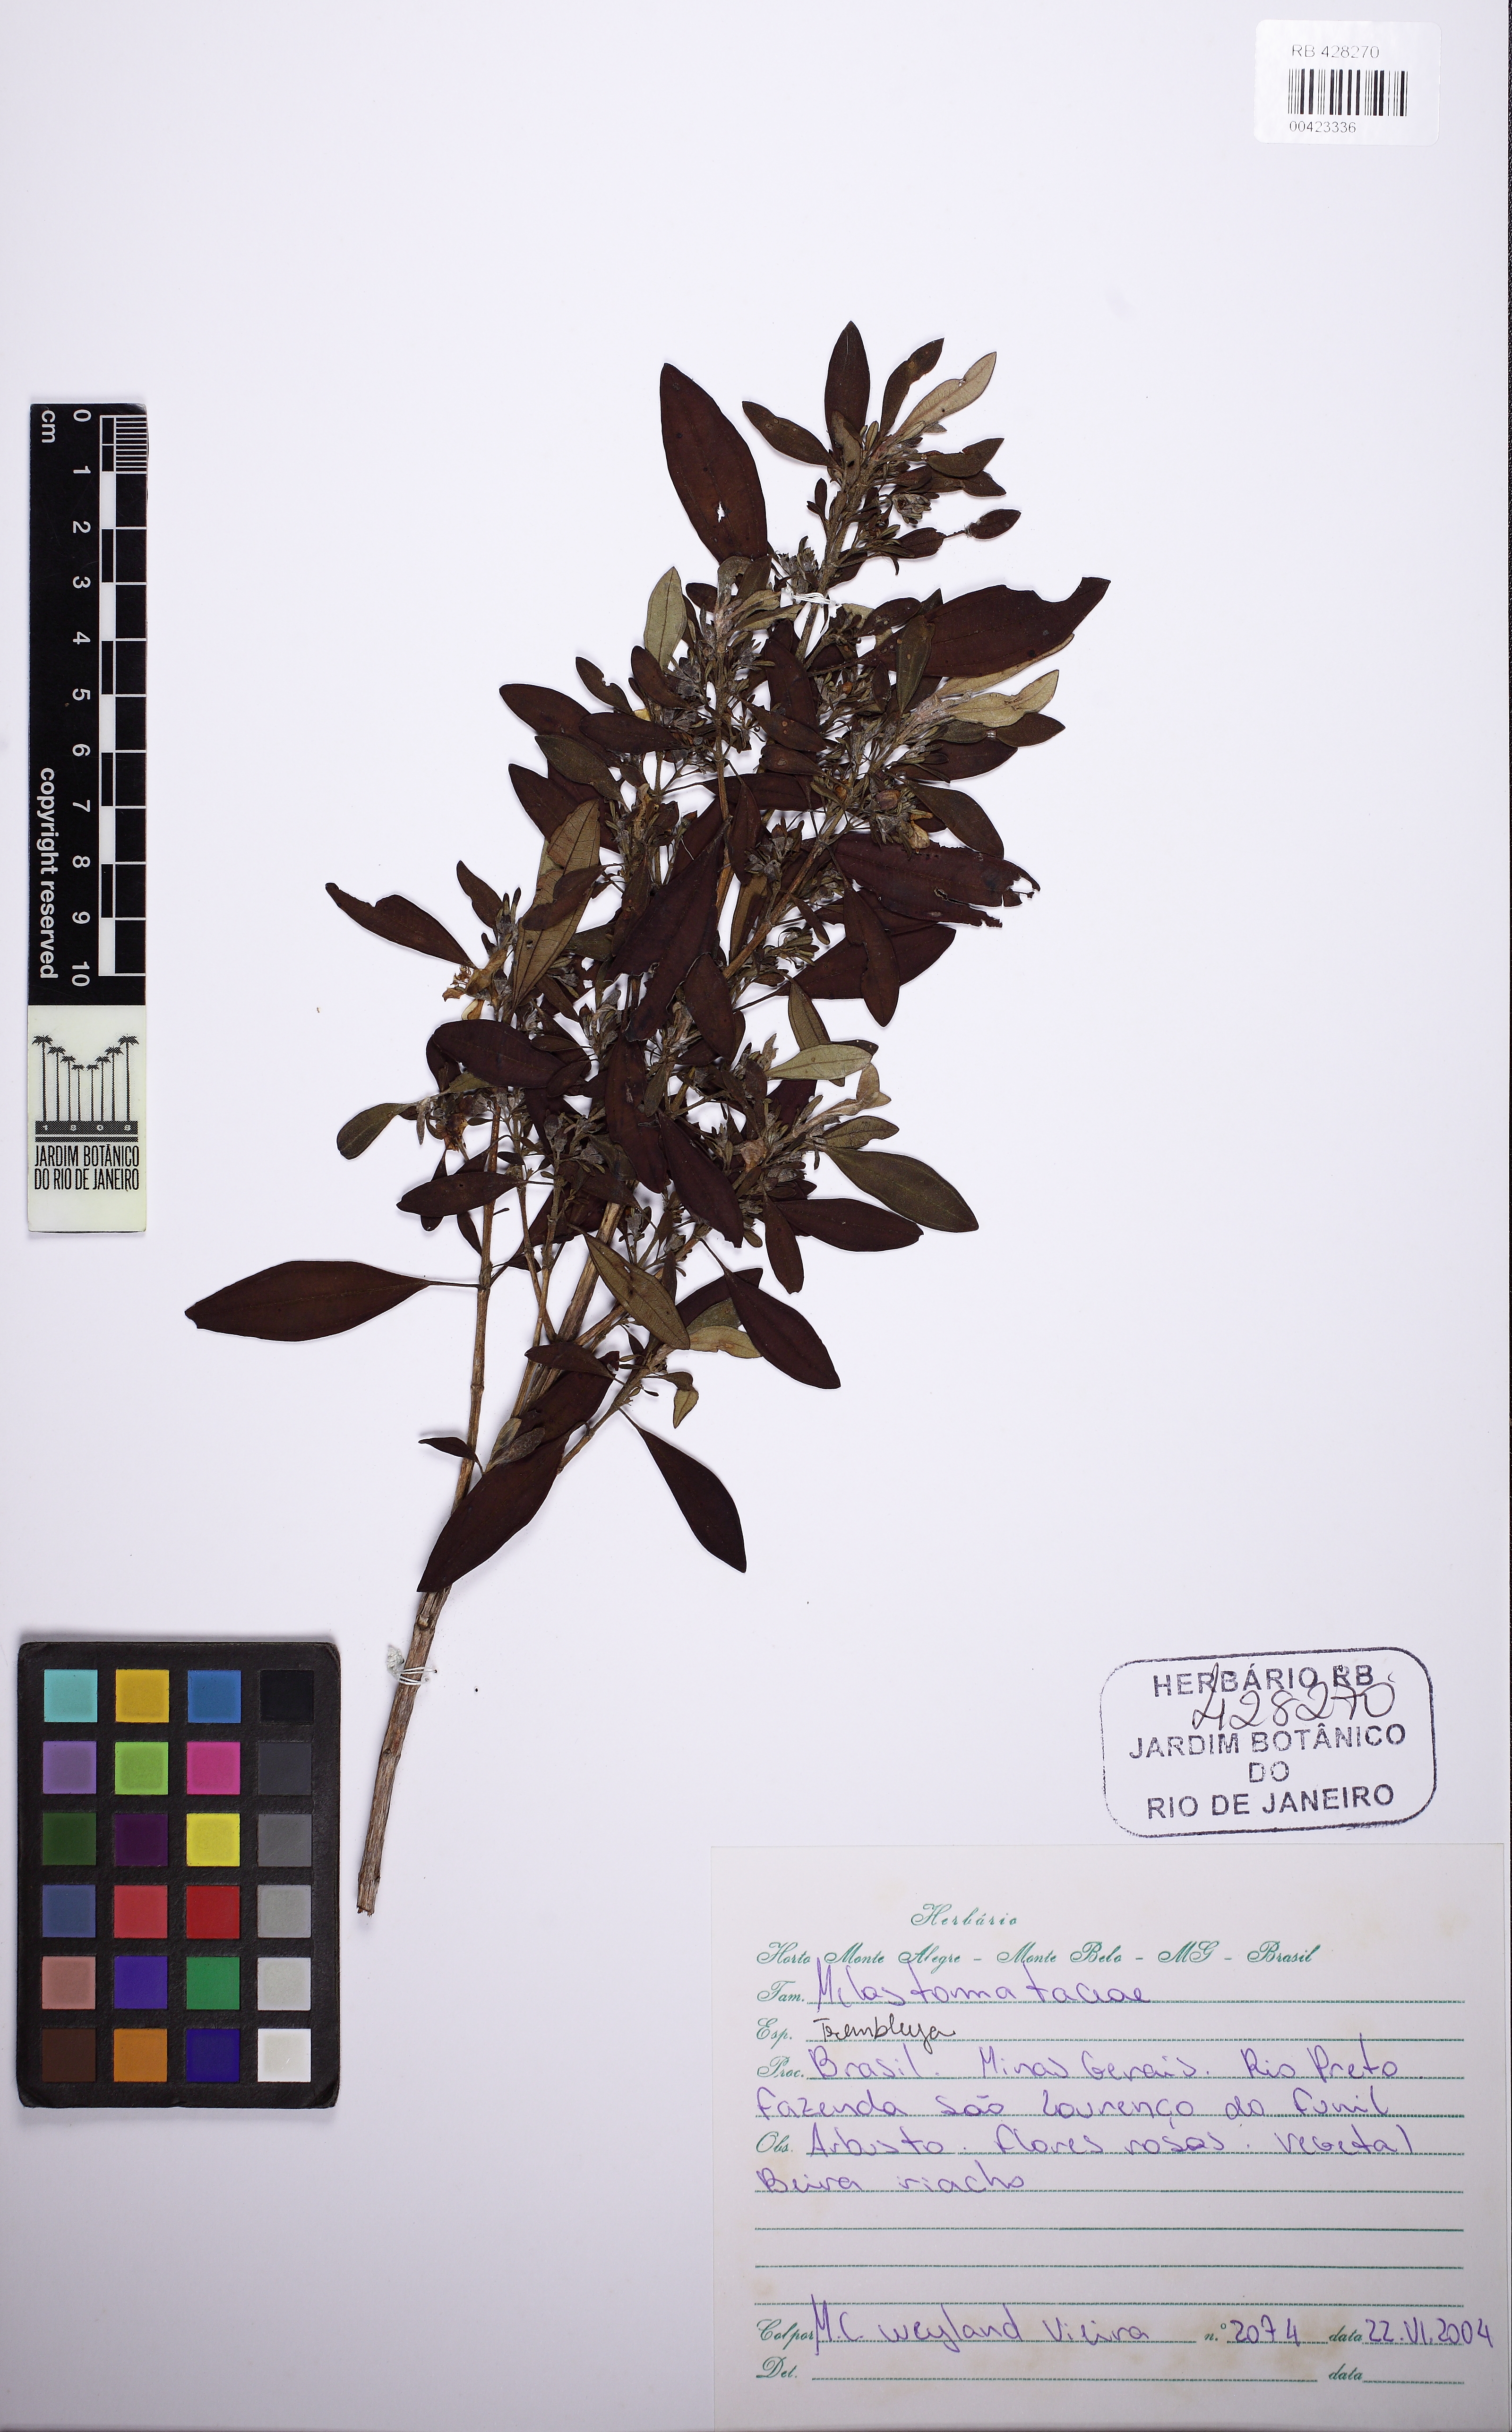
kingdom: Plantae
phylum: Tracheophyta
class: Magnoliopsida
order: Myrtales
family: Melastomataceae
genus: Microlicia
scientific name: Microlicia parviflora
